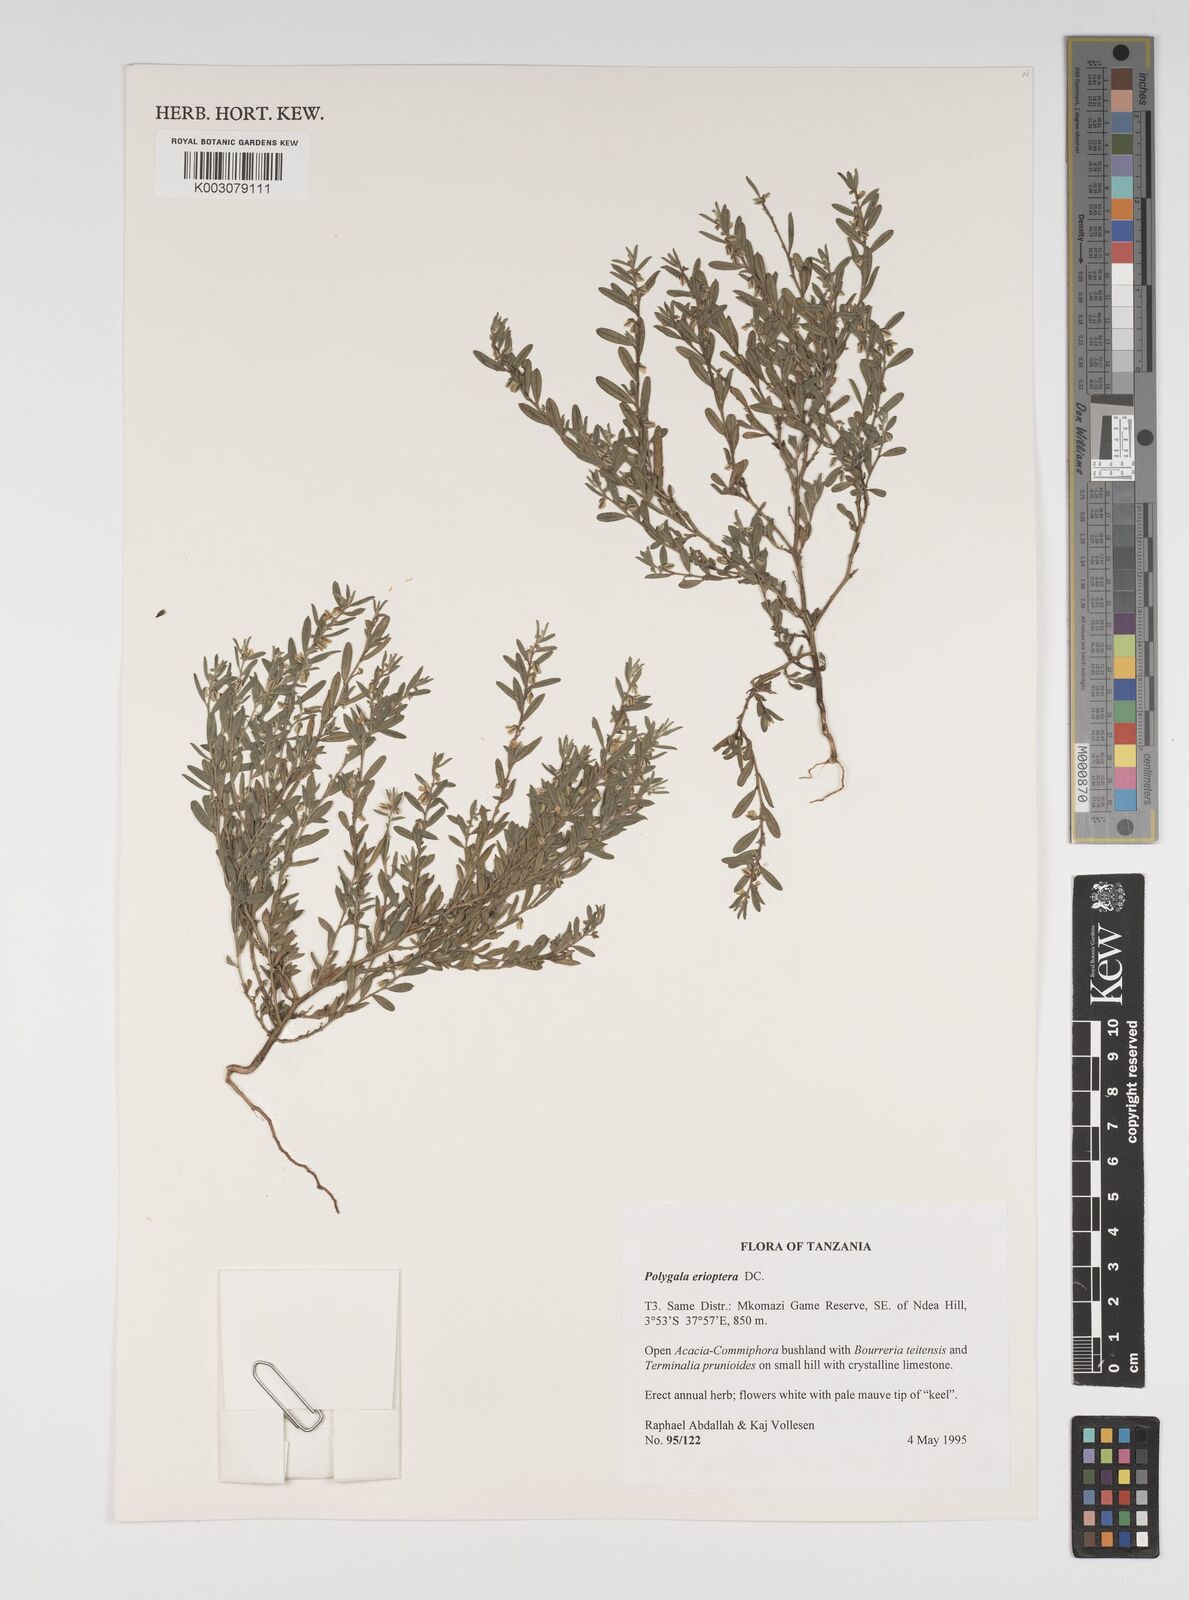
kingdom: Plantae
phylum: Tracheophyta
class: Magnoliopsida
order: Fabales
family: Polygalaceae
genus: Polygala
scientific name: Polygala erioptera
